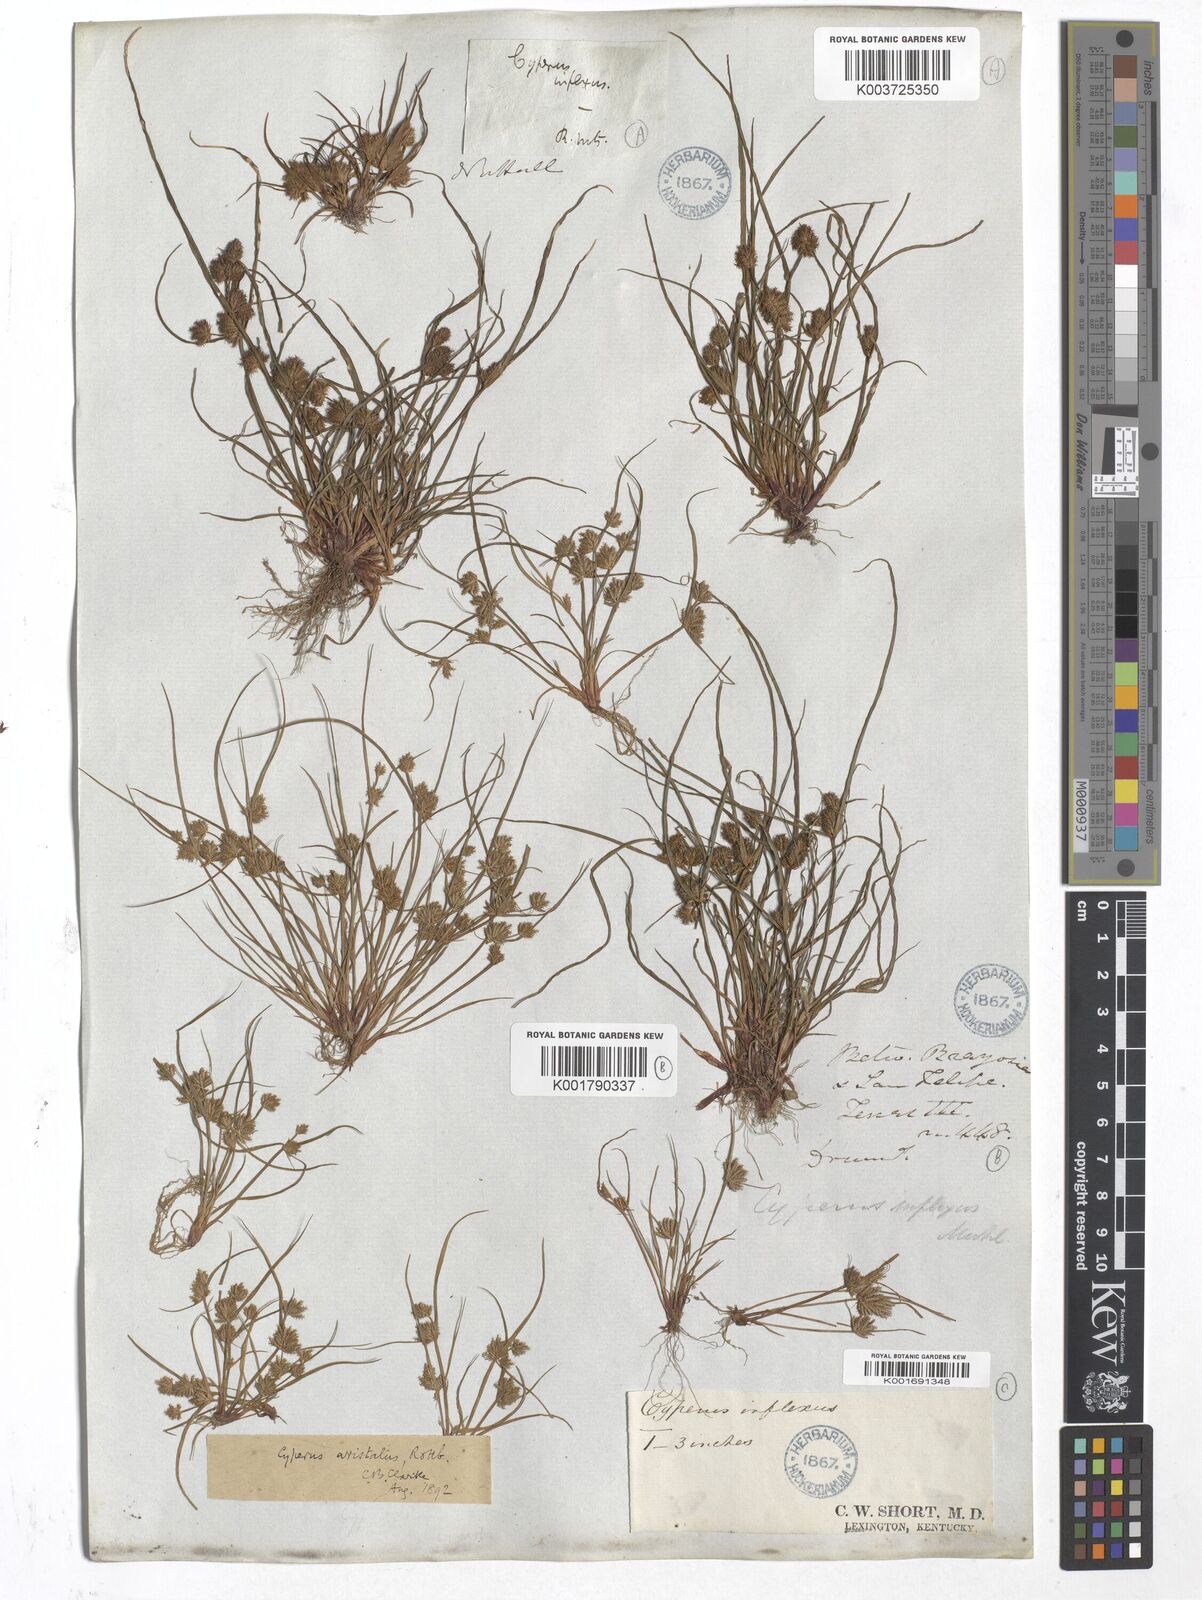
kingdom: Plantae
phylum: Tracheophyta
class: Liliopsida
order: Poales
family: Cyperaceae
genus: Cyperus
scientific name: Cyperus squarrosus
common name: Awned cyperus
